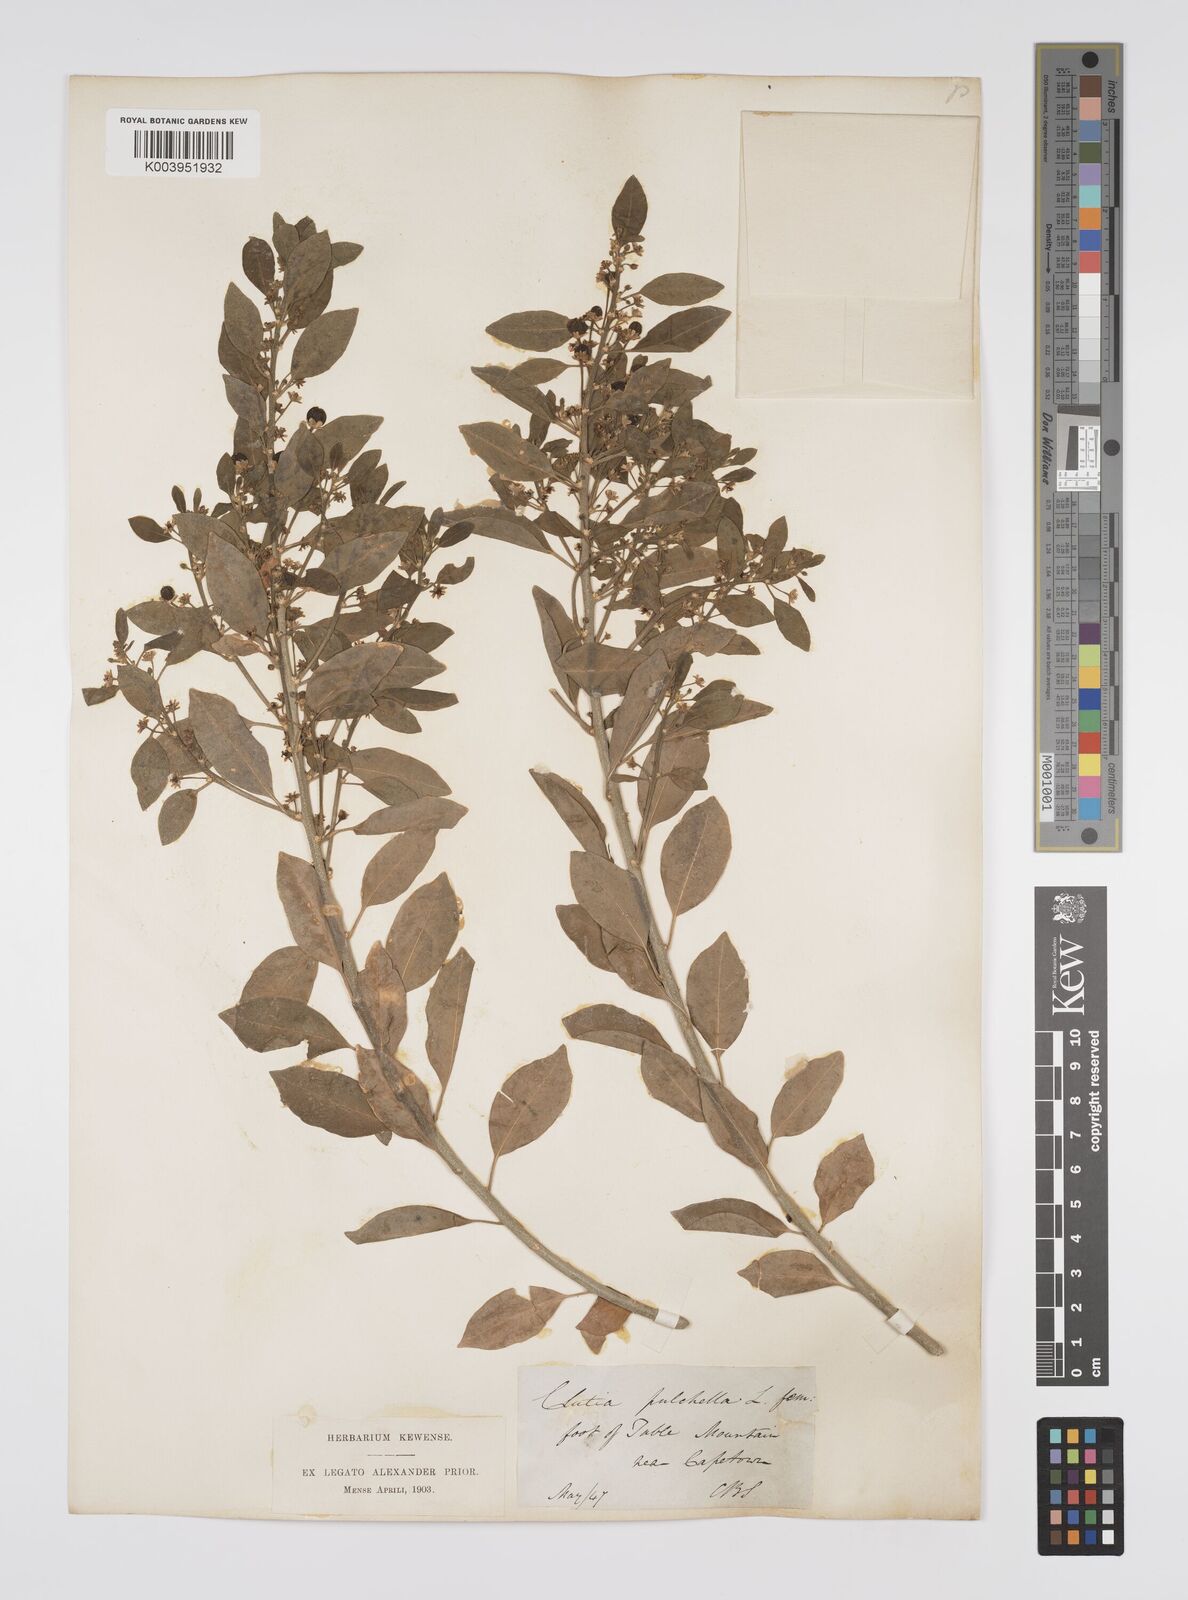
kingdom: Plantae
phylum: Tracheophyta
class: Magnoliopsida
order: Malpighiales
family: Peraceae
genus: Clutia
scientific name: Clutia pulchella
